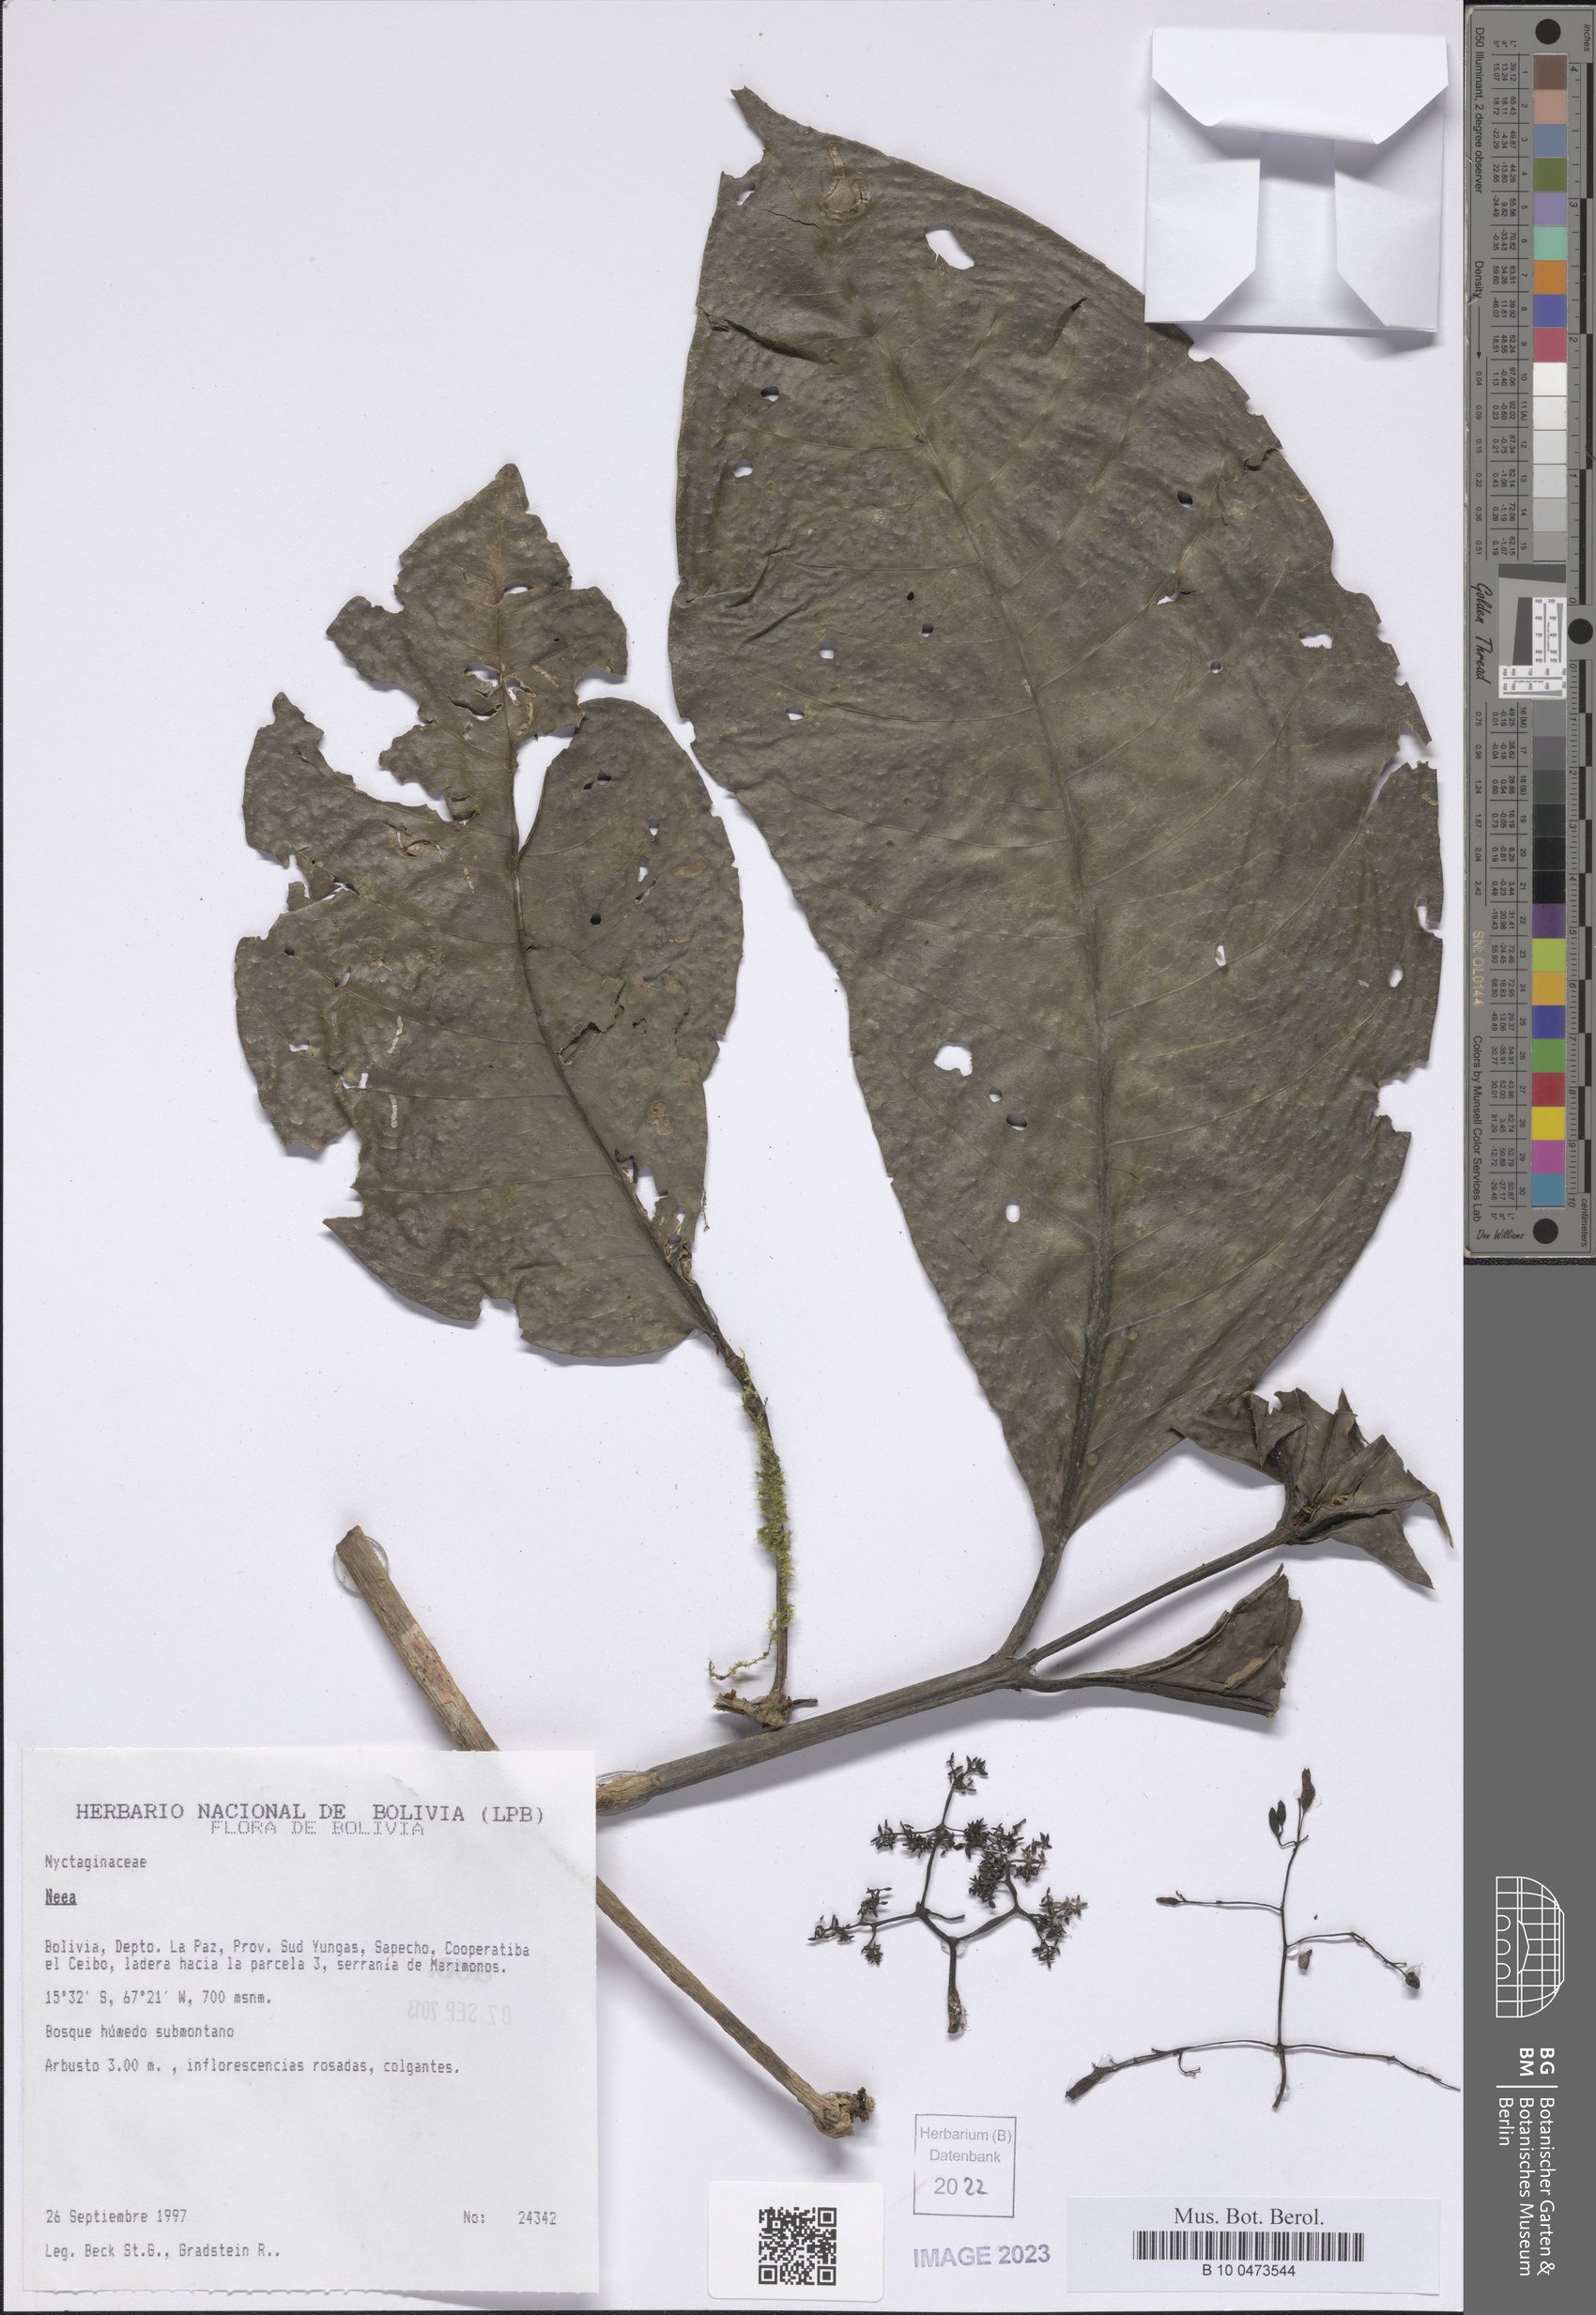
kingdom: Plantae
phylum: Tracheophyta
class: Magnoliopsida
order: Caryophyllales
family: Nyctaginaceae
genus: Neea
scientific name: Neea
